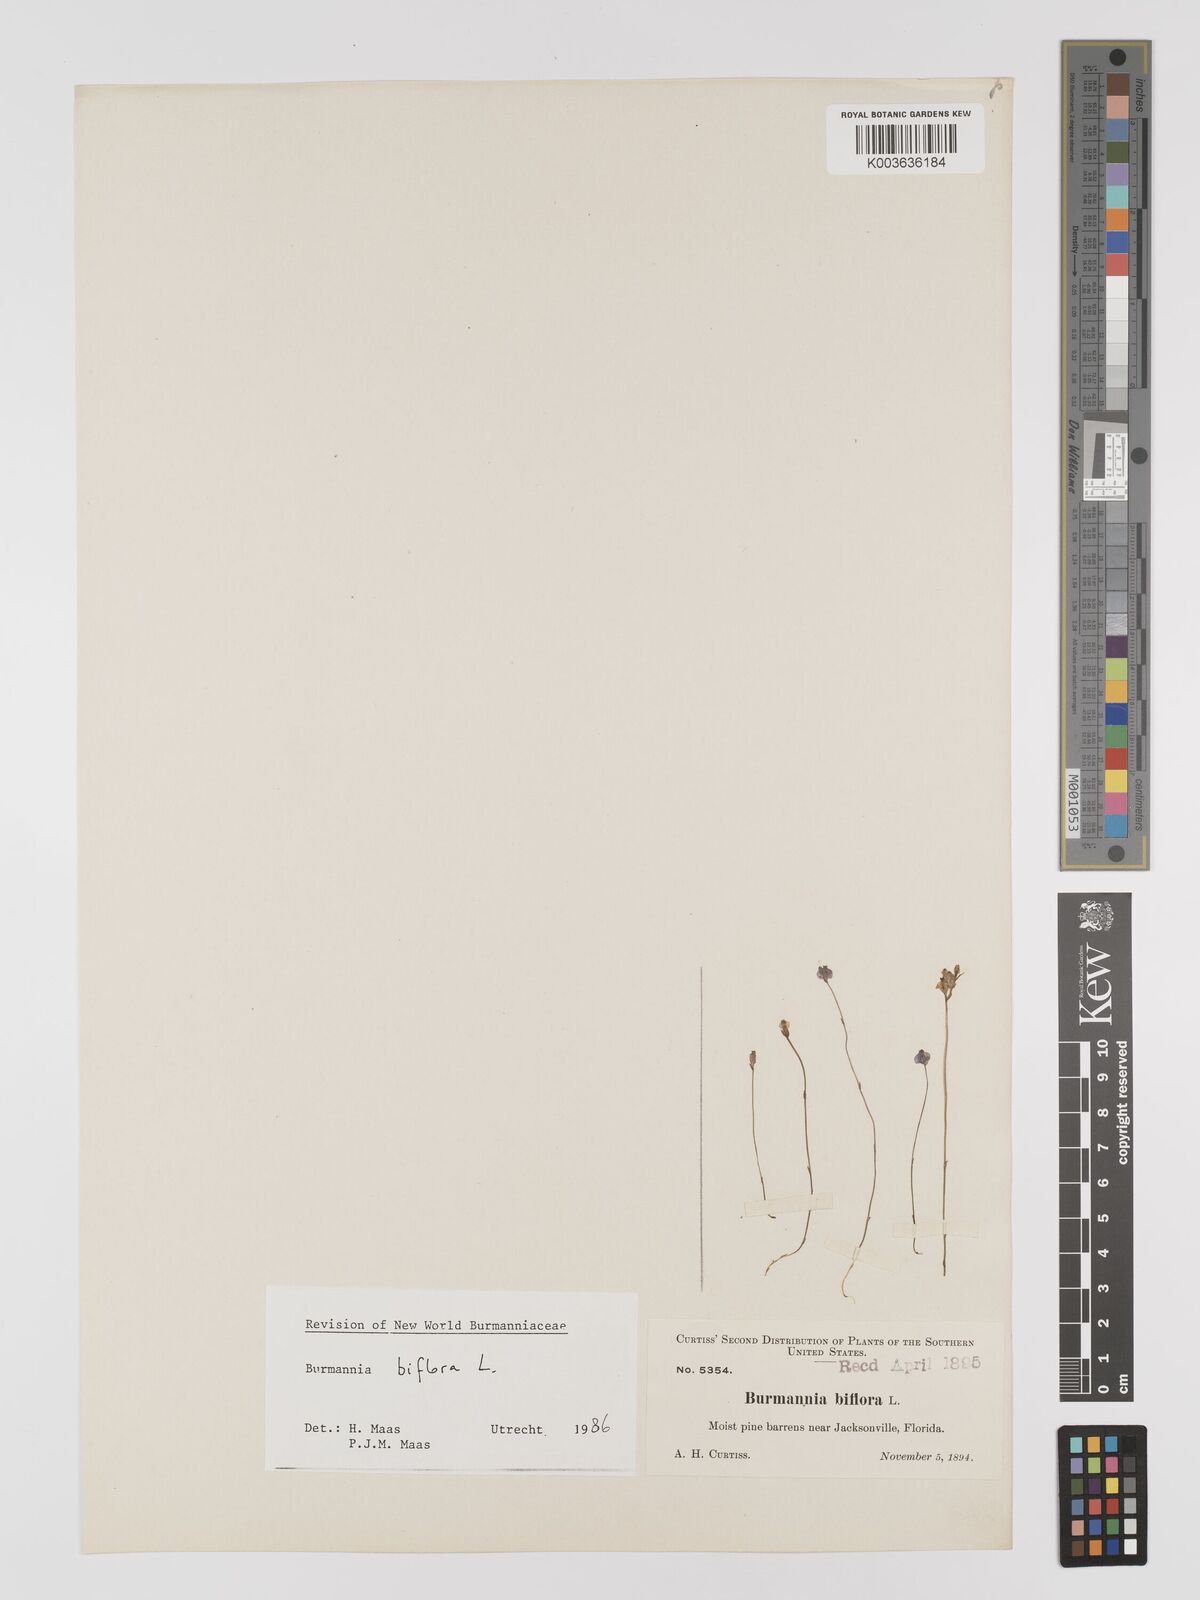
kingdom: Plantae
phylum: Tracheophyta
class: Liliopsida
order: Dioscoreales
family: Burmanniaceae
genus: Burmannia
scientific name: Burmannia biflora
